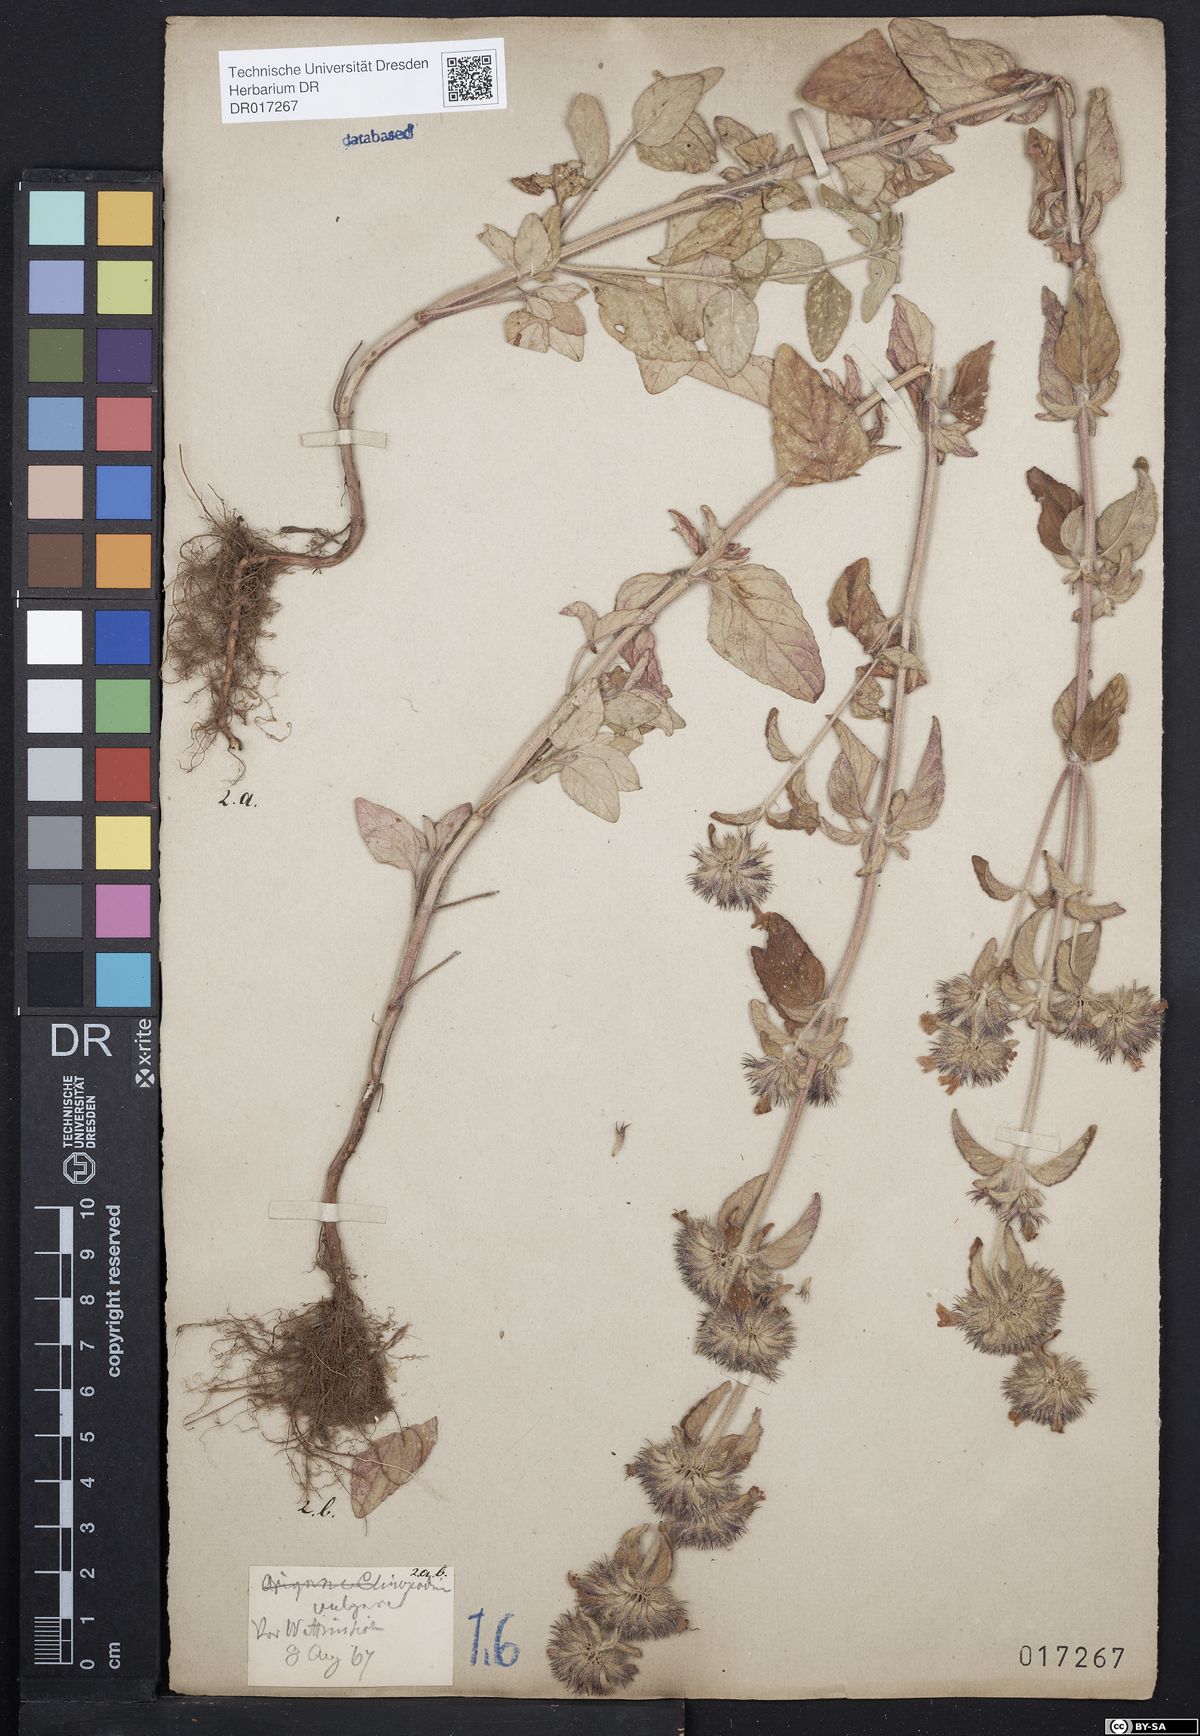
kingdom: Plantae
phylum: Tracheophyta
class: Magnoliopsida
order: Lamiales
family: Lamiaceae
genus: Clinopodium
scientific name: Clinopodium vulgare
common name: Wild basil
